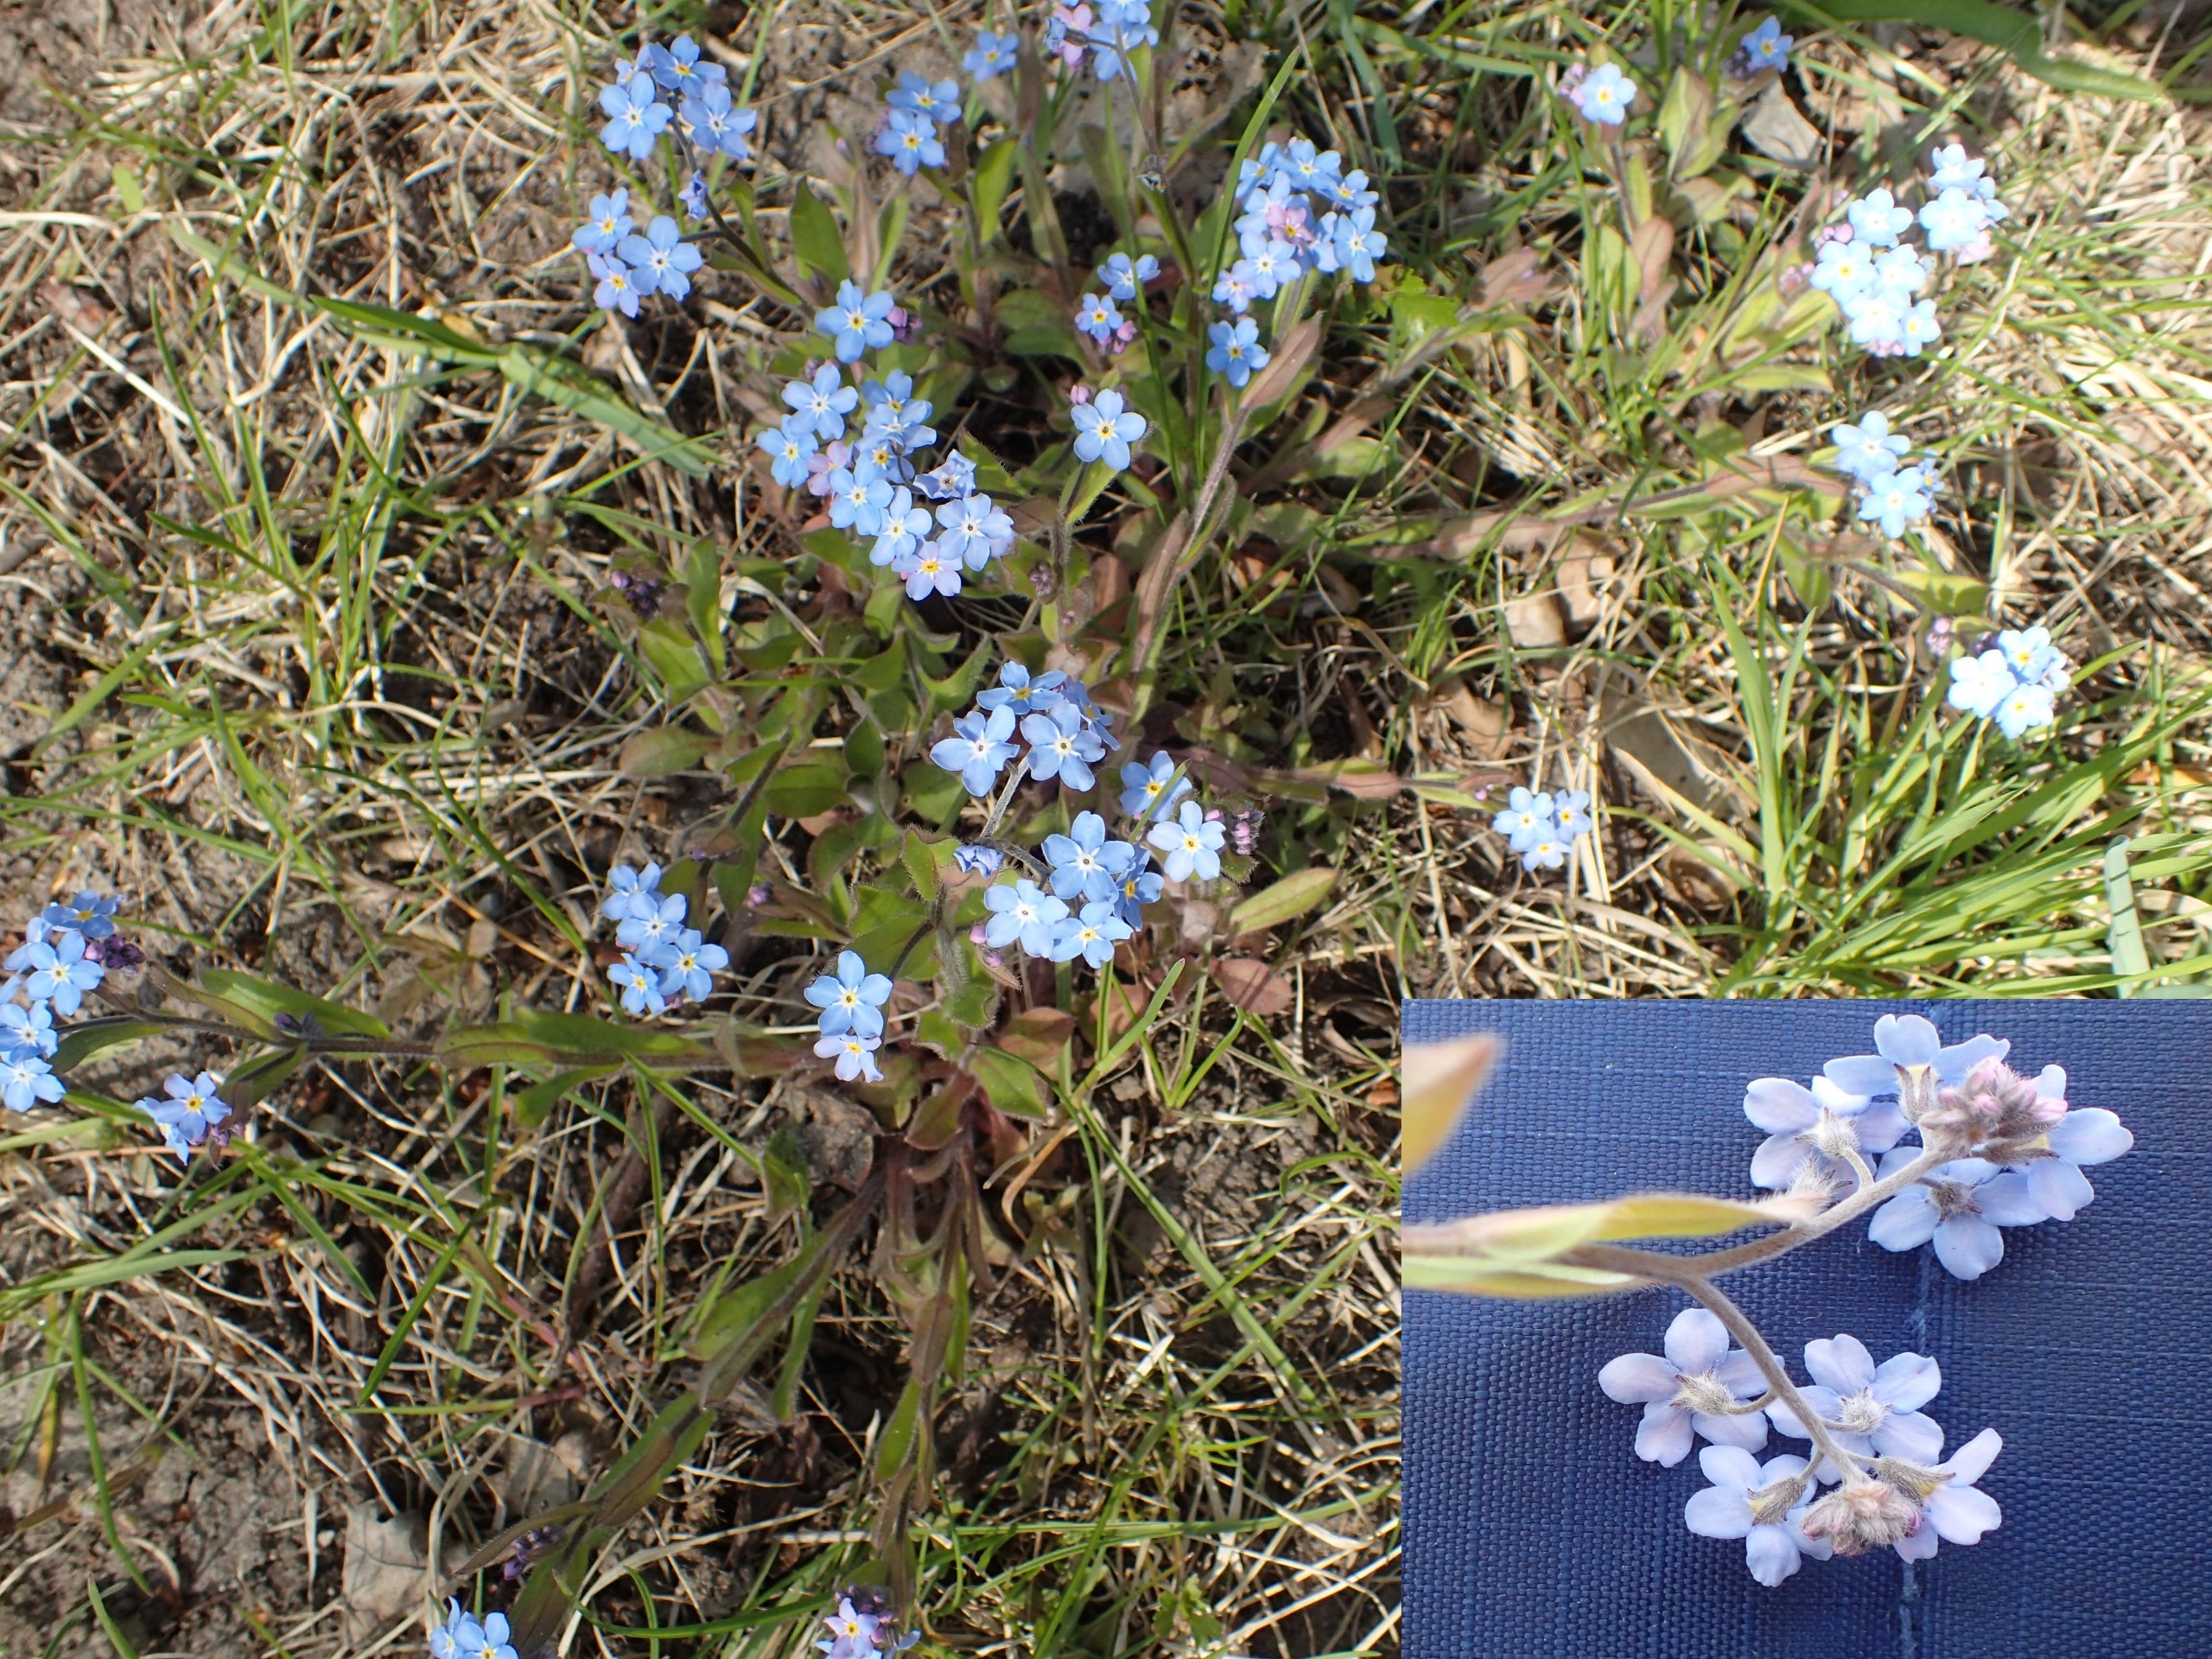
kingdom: Plantae
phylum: Tracheophyta
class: Magnoliopsida
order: Boraginales
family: Boraginaceae
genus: Myosotis
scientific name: Myosotis sylvatica
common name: Skov-forglemmigej
